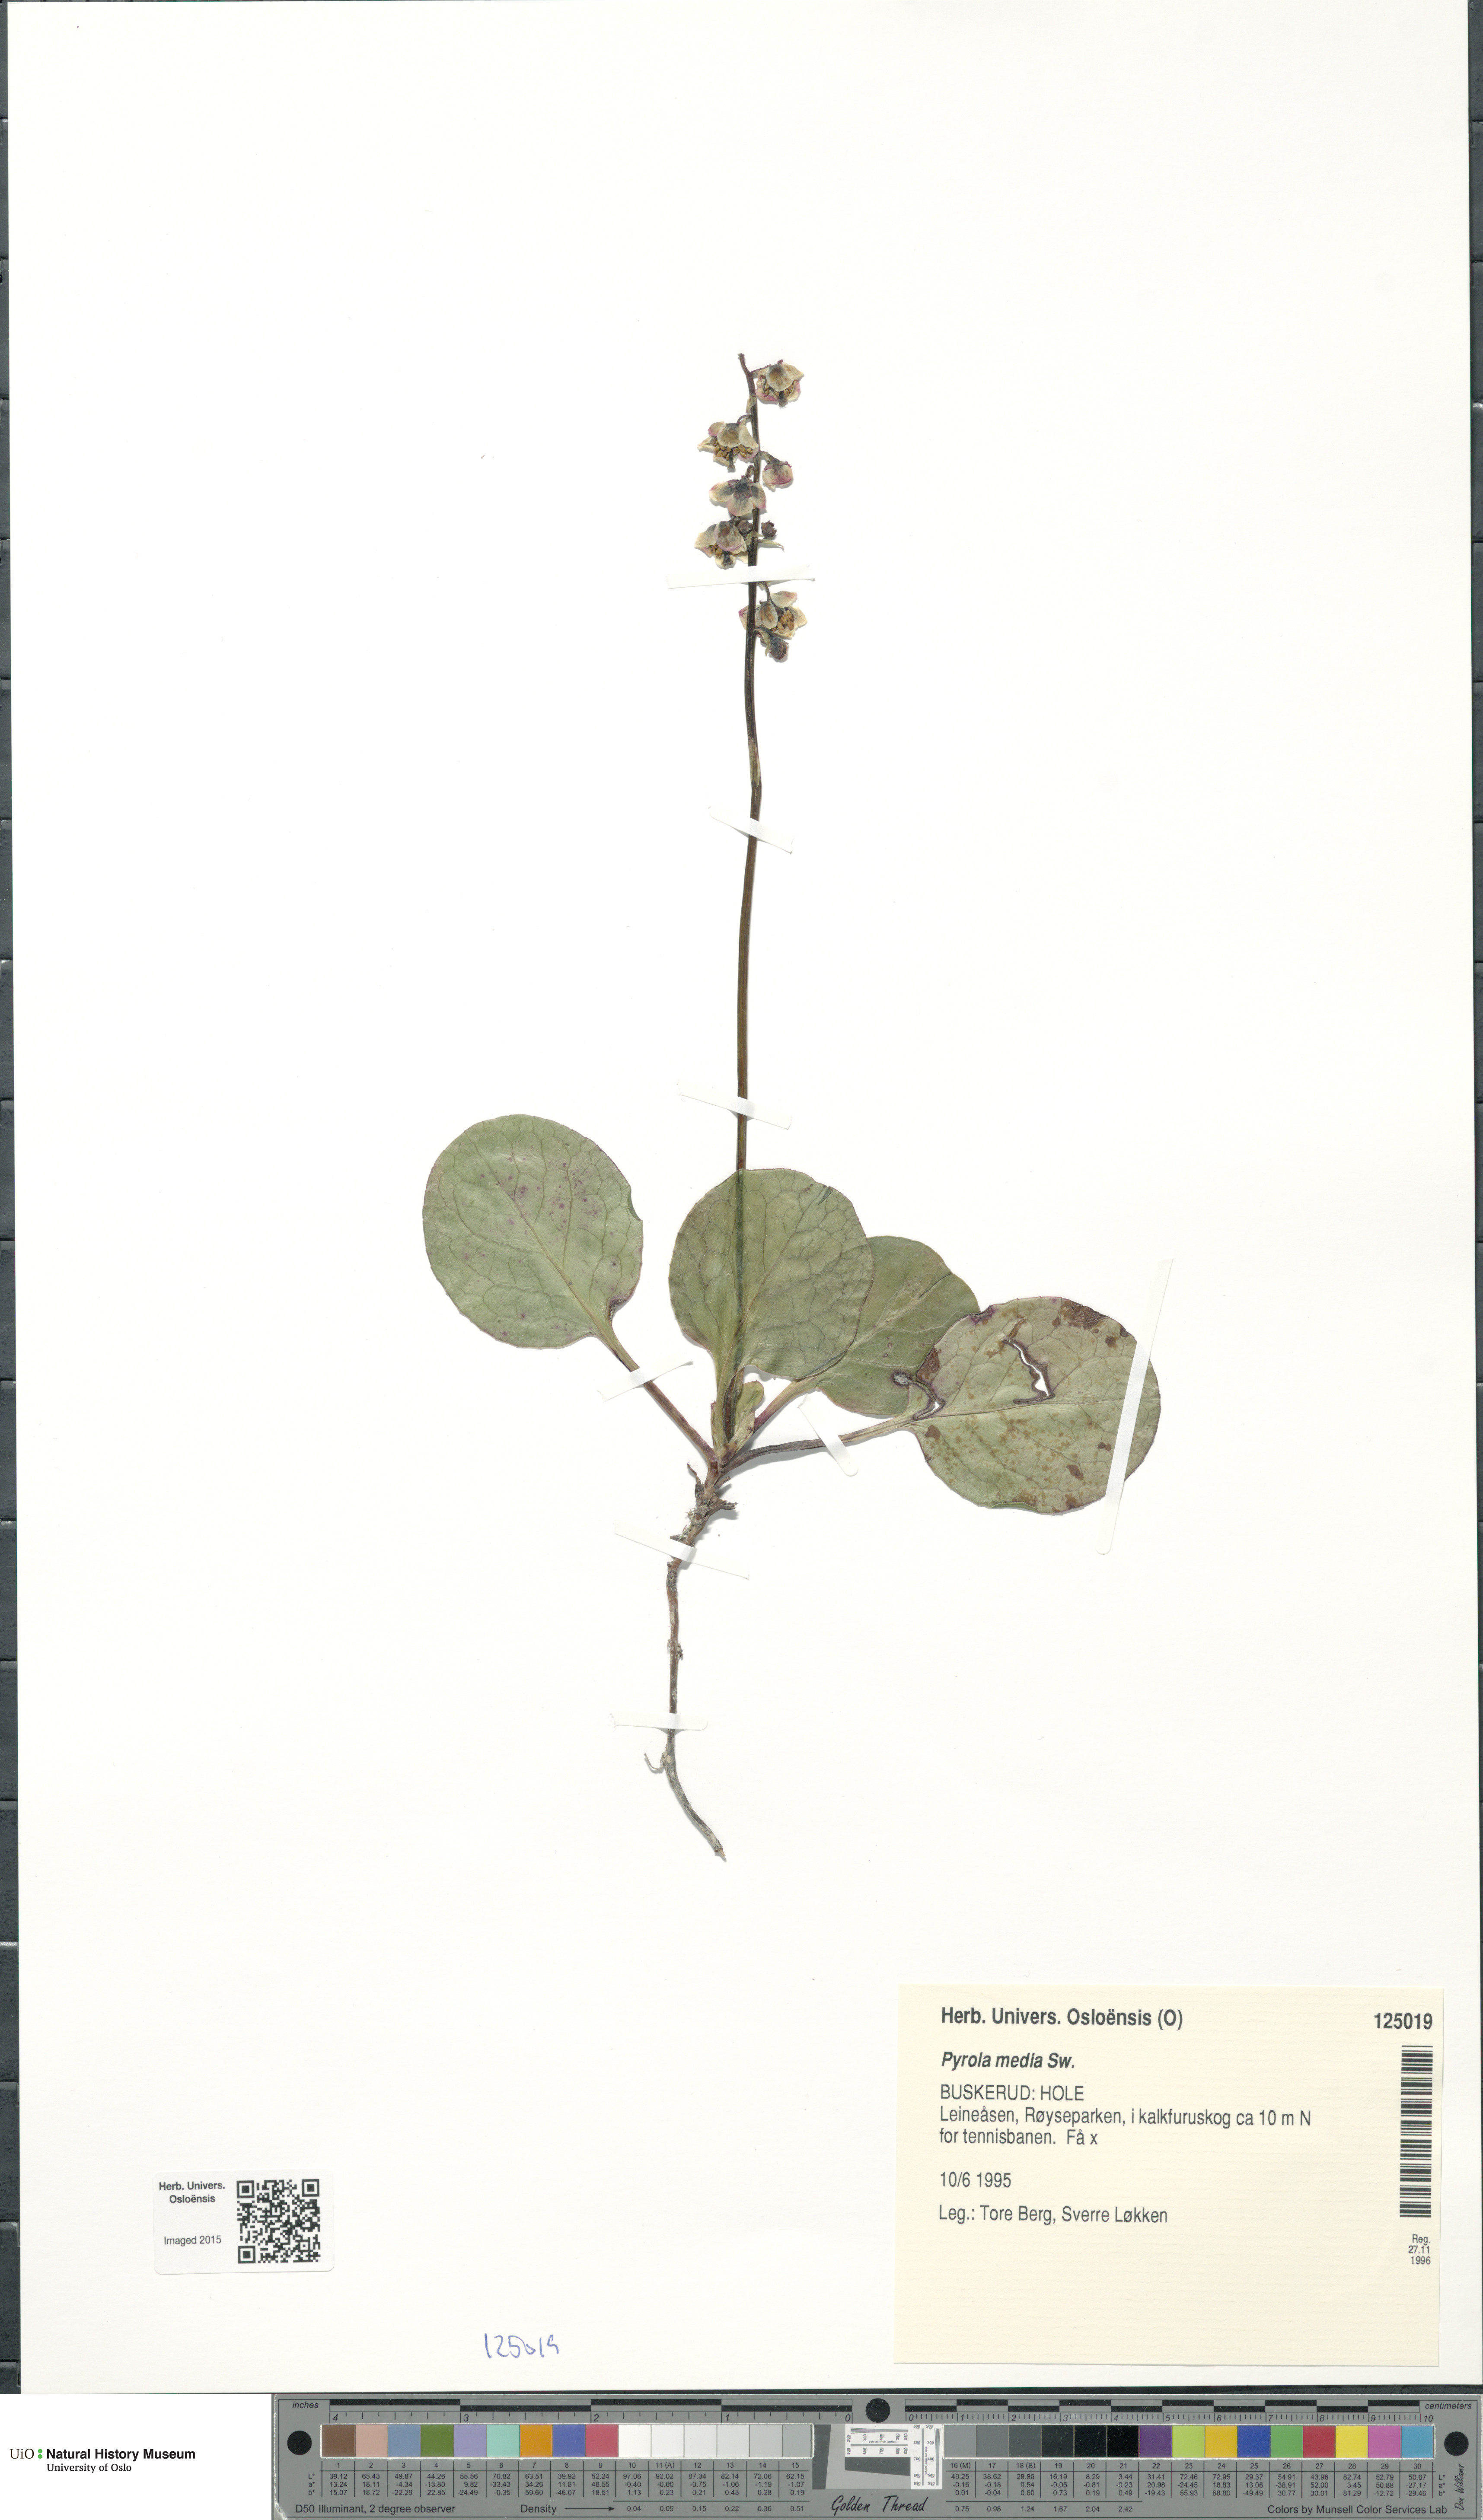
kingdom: Plantae
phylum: Tracheophyta
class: Magnoliopsida
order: Ericales
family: Ericaceae
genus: Pyrola
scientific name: Pyrola media
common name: Intermediate wintergreen
